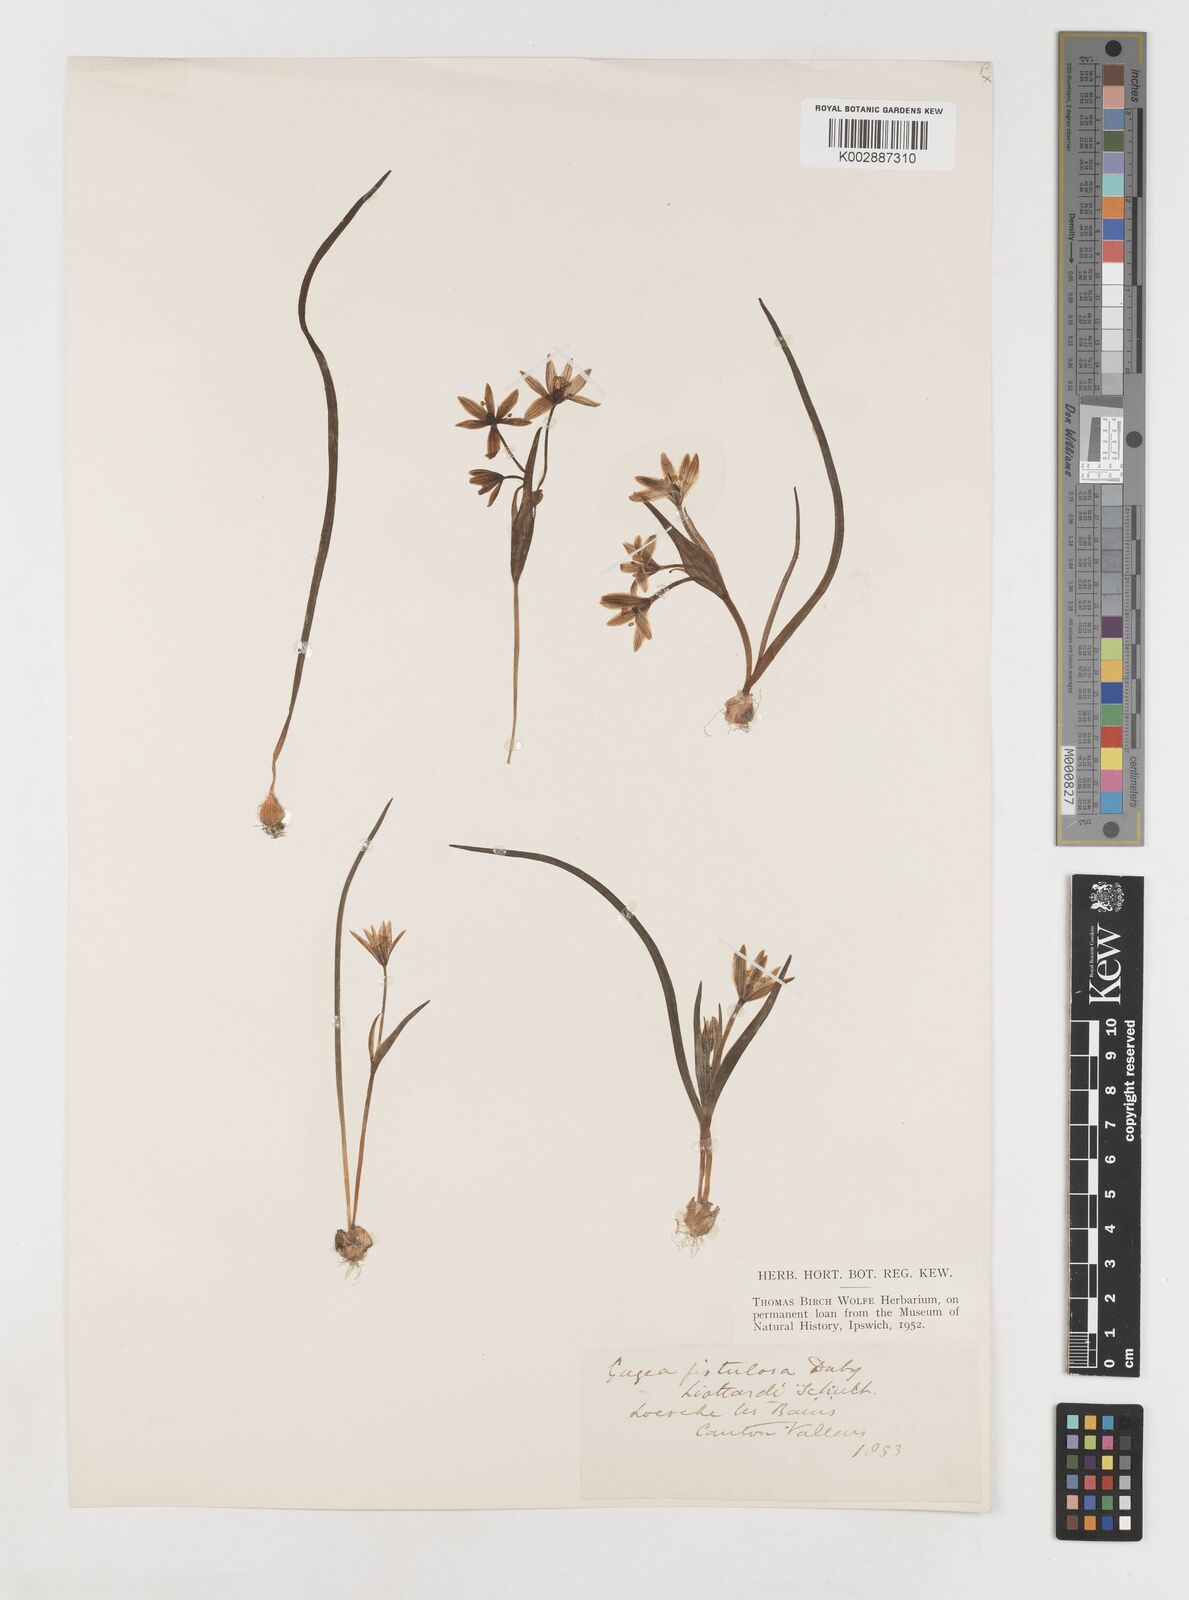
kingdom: Plantae
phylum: Tracheophyta
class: Liliopsida
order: Liliales
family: Liliaceae
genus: Gagea
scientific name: Gagea bohemica
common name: Early star-of-bethlehem
